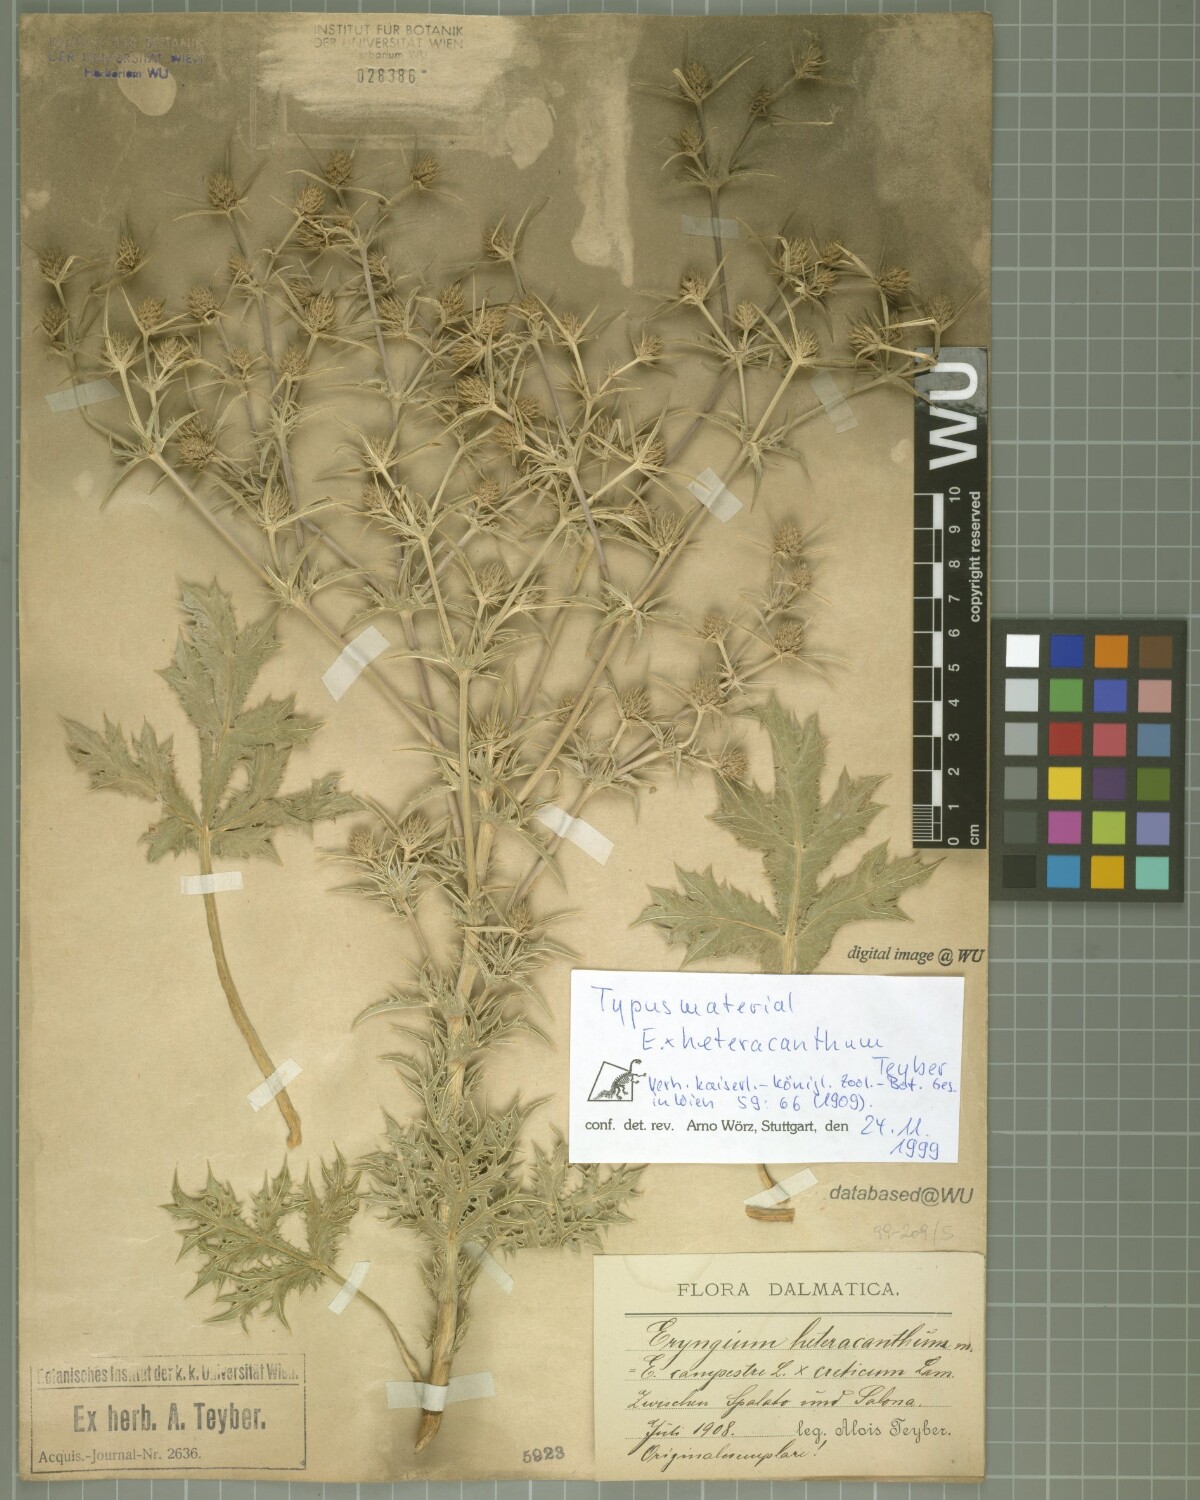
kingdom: Plantae
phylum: Tracheophyta
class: Magnoliopsida
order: Apiales
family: Apiaceae
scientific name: Apiaceae
